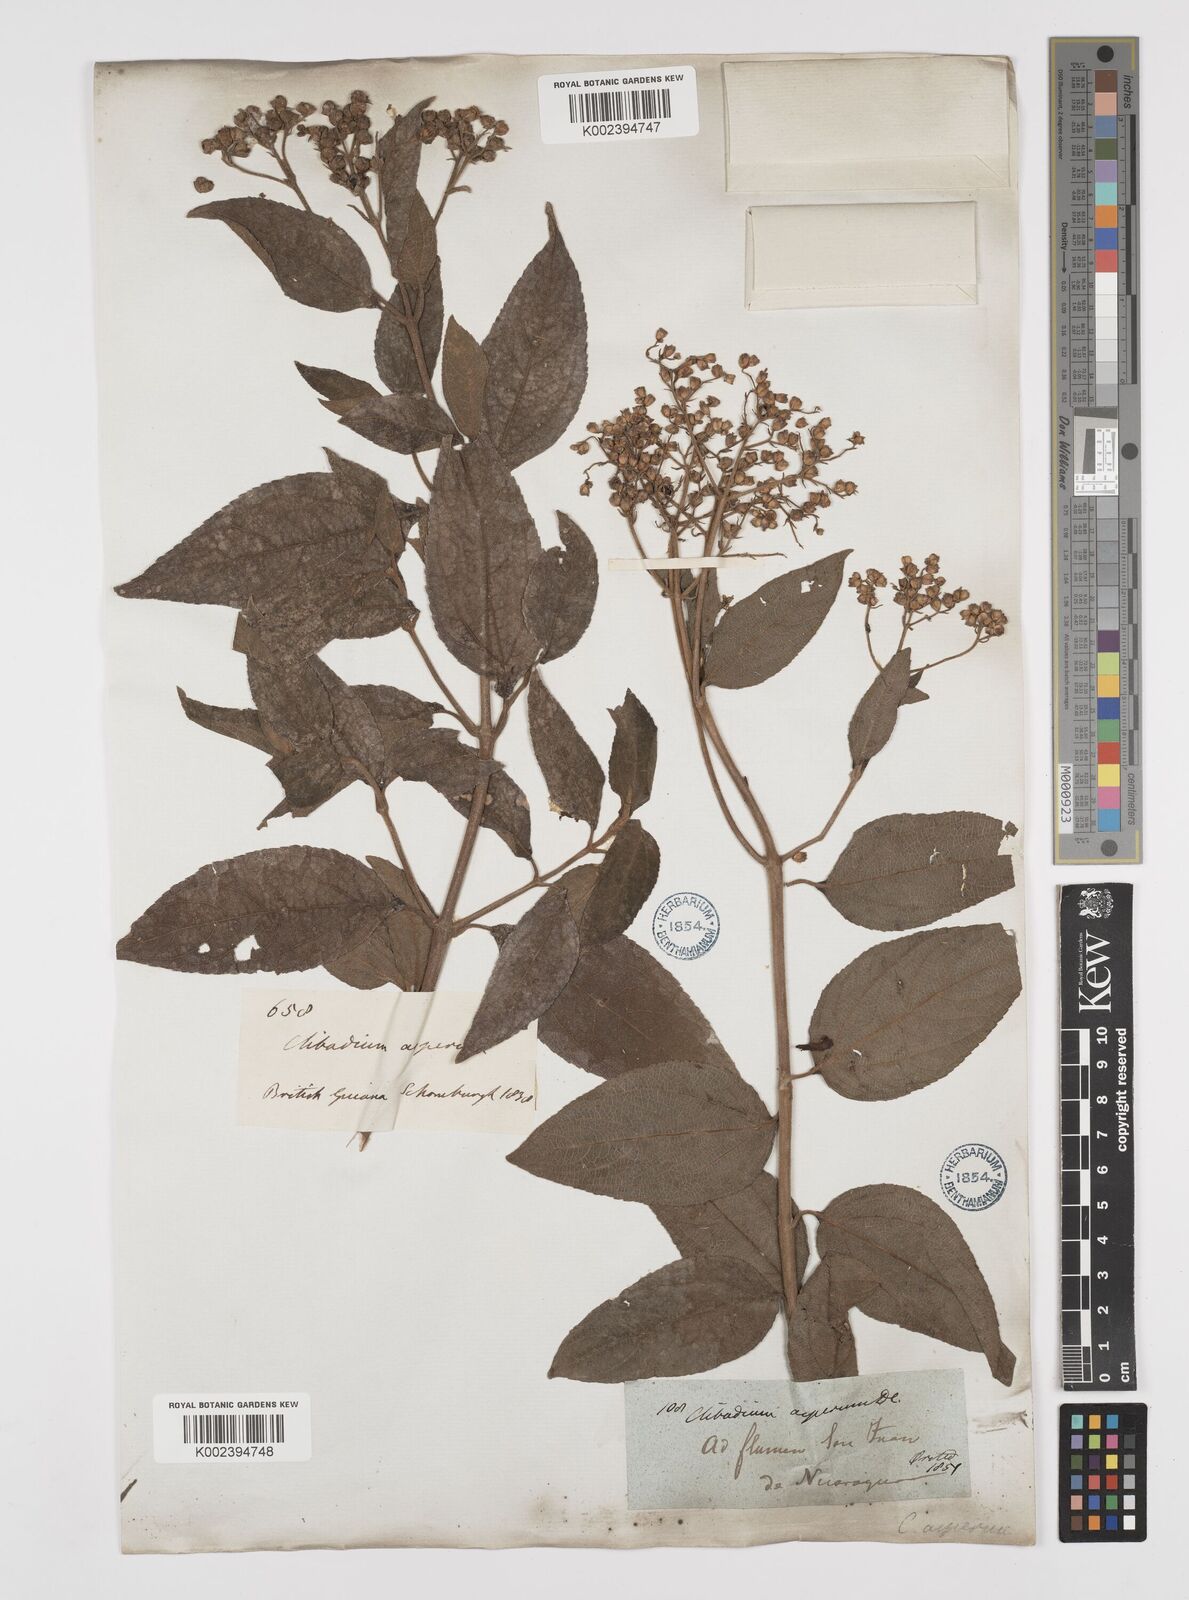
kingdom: Plantae
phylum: Tracheophyta
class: Magnoliopsida
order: Asterales
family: Asteraceae
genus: Clibadium
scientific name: Clibadium surinamense
